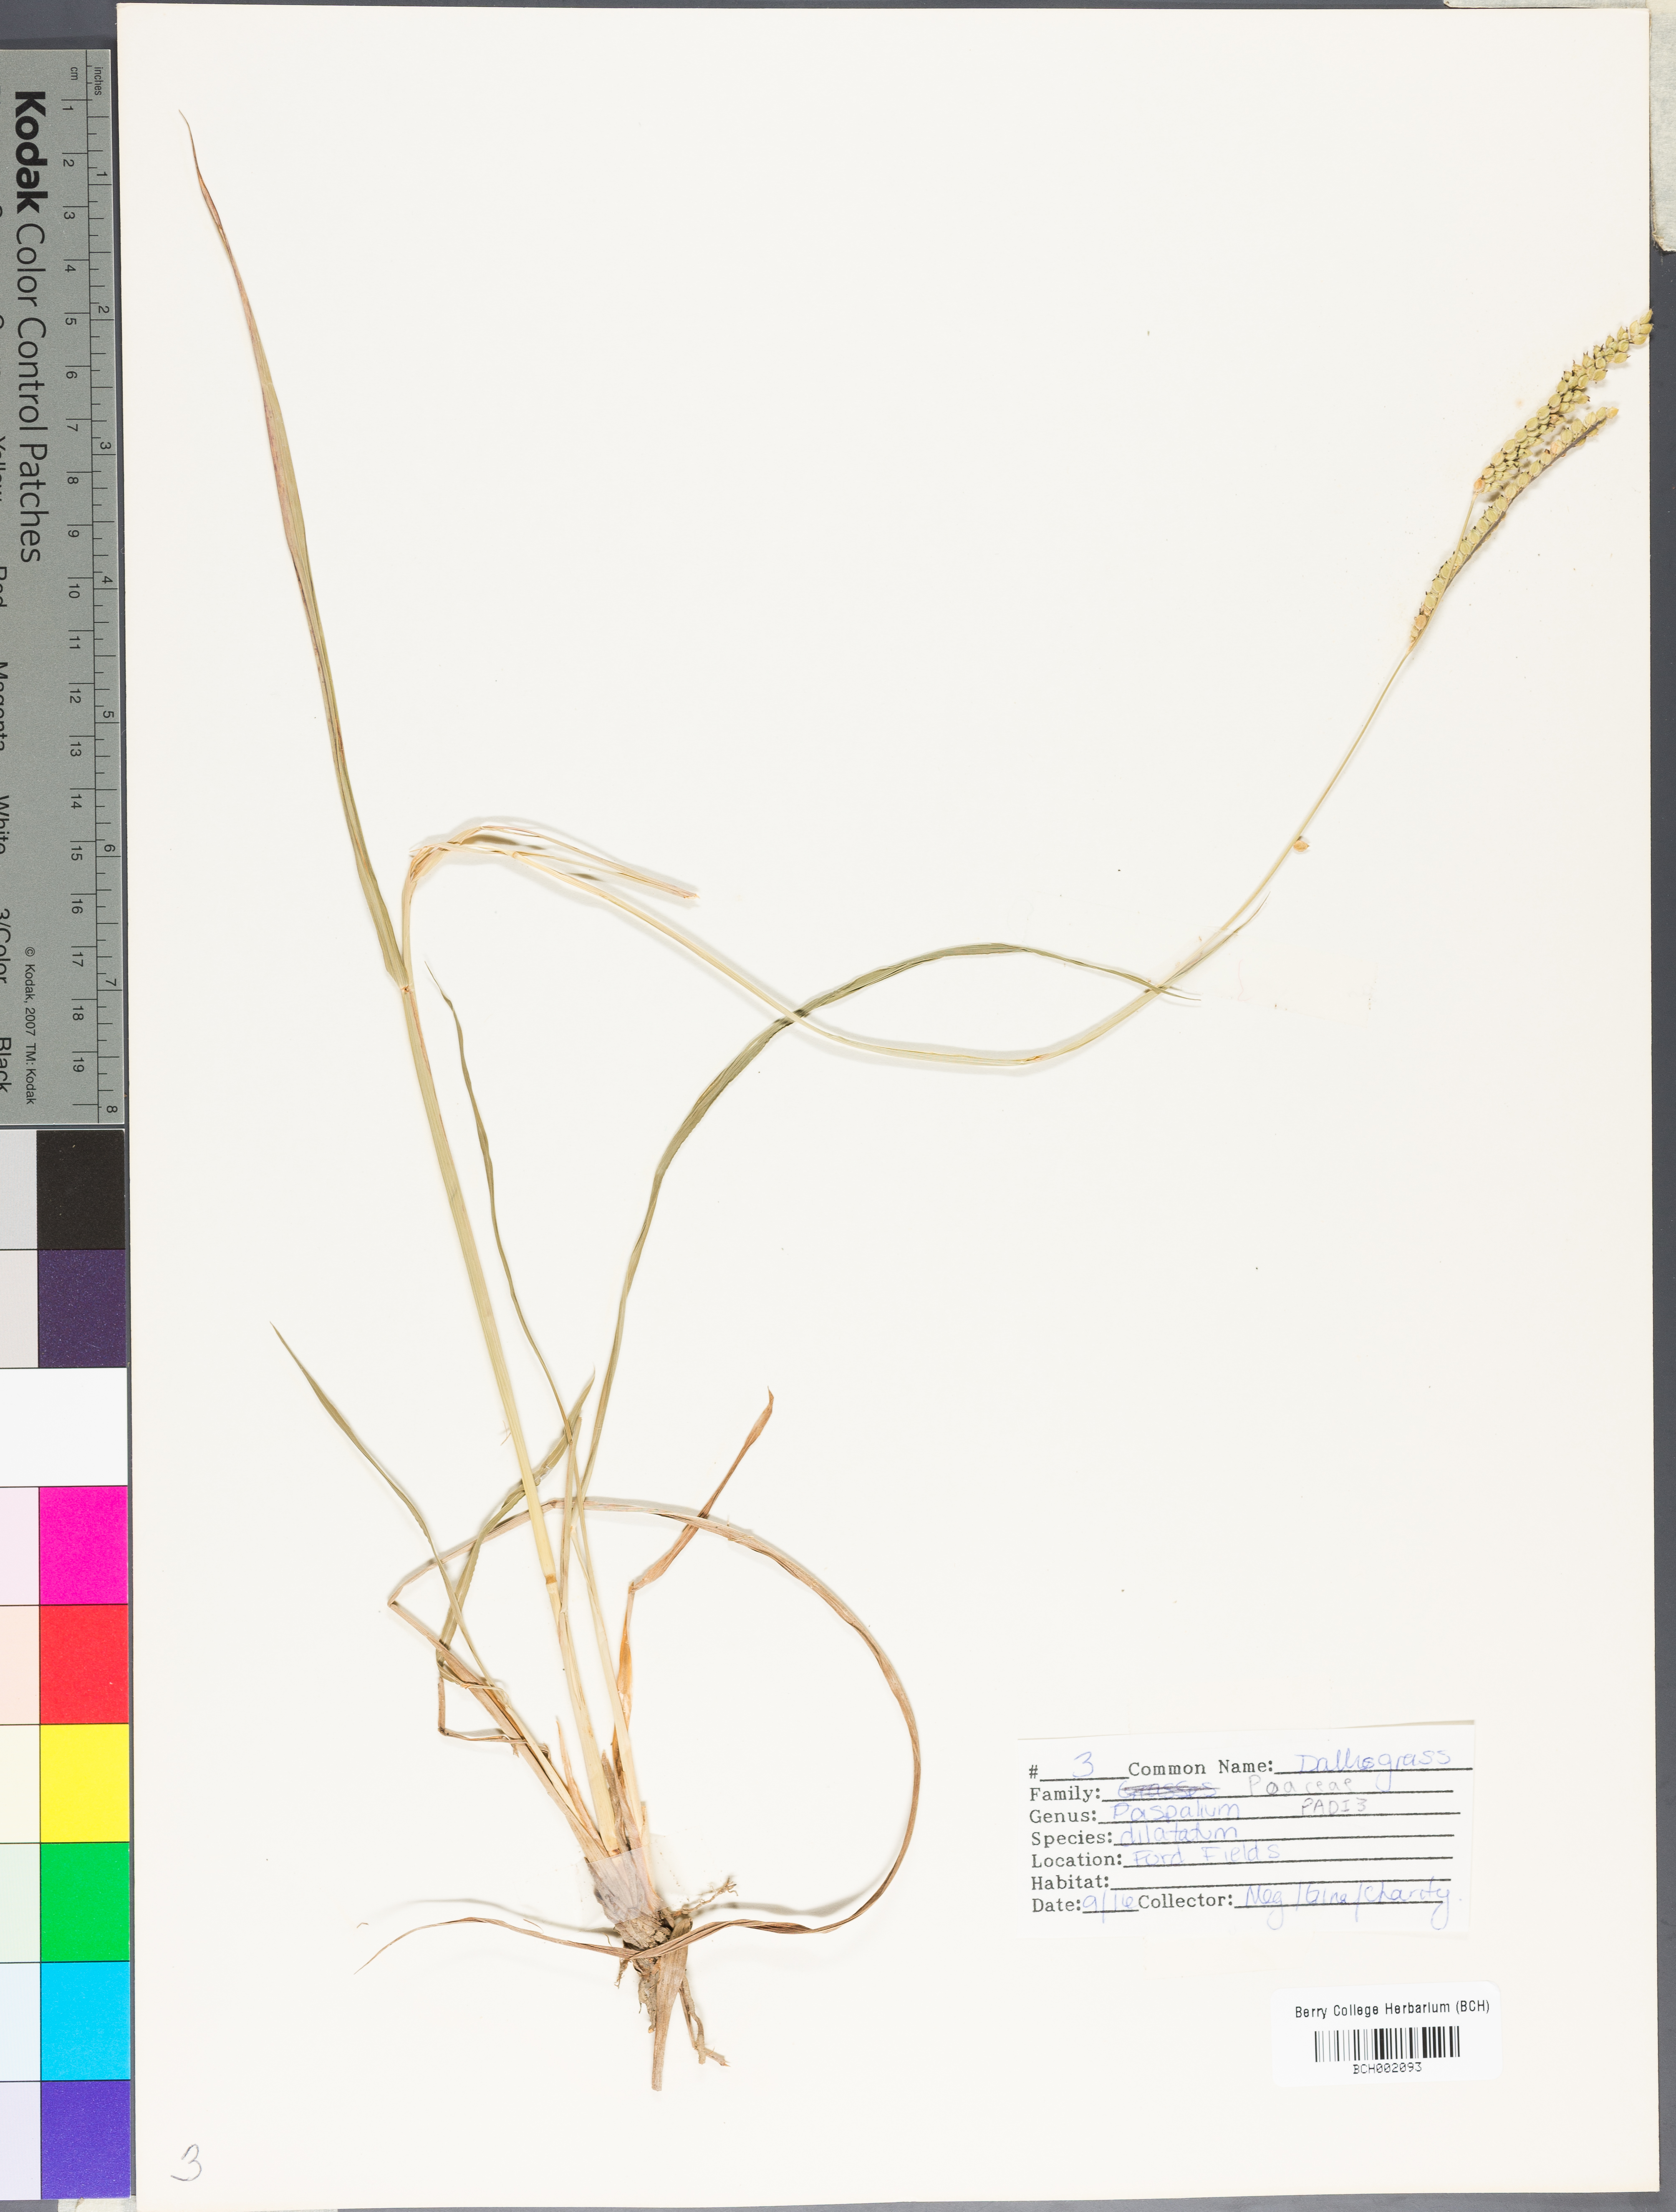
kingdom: Plantae
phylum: Tracheophyta
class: Liliopsida
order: Poales
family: Poaceae
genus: Paspalum
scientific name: Paspalum dilatatum
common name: Dallisgrass
